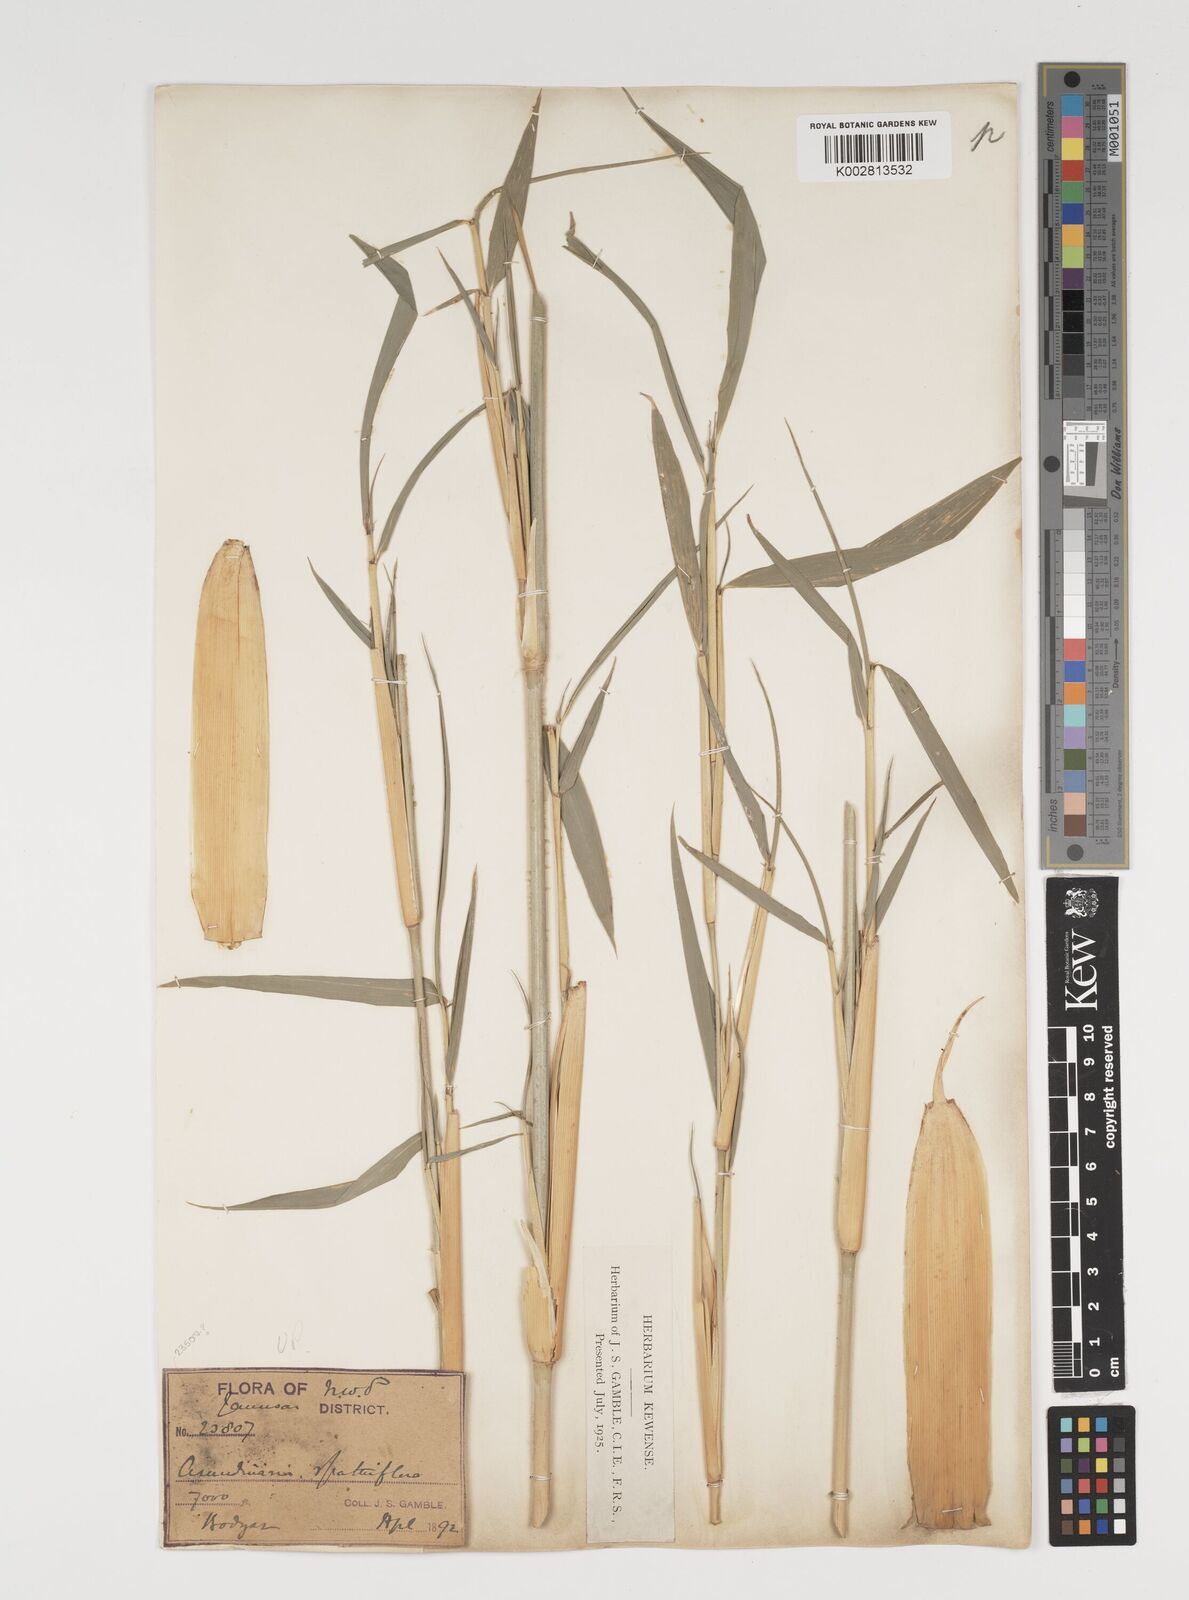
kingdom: Plantae
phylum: Tracheophyta
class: Liliopsida
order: Poales
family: Poaceae
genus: Thamnocalamus
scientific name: Thamnocalamus spathiflorus
